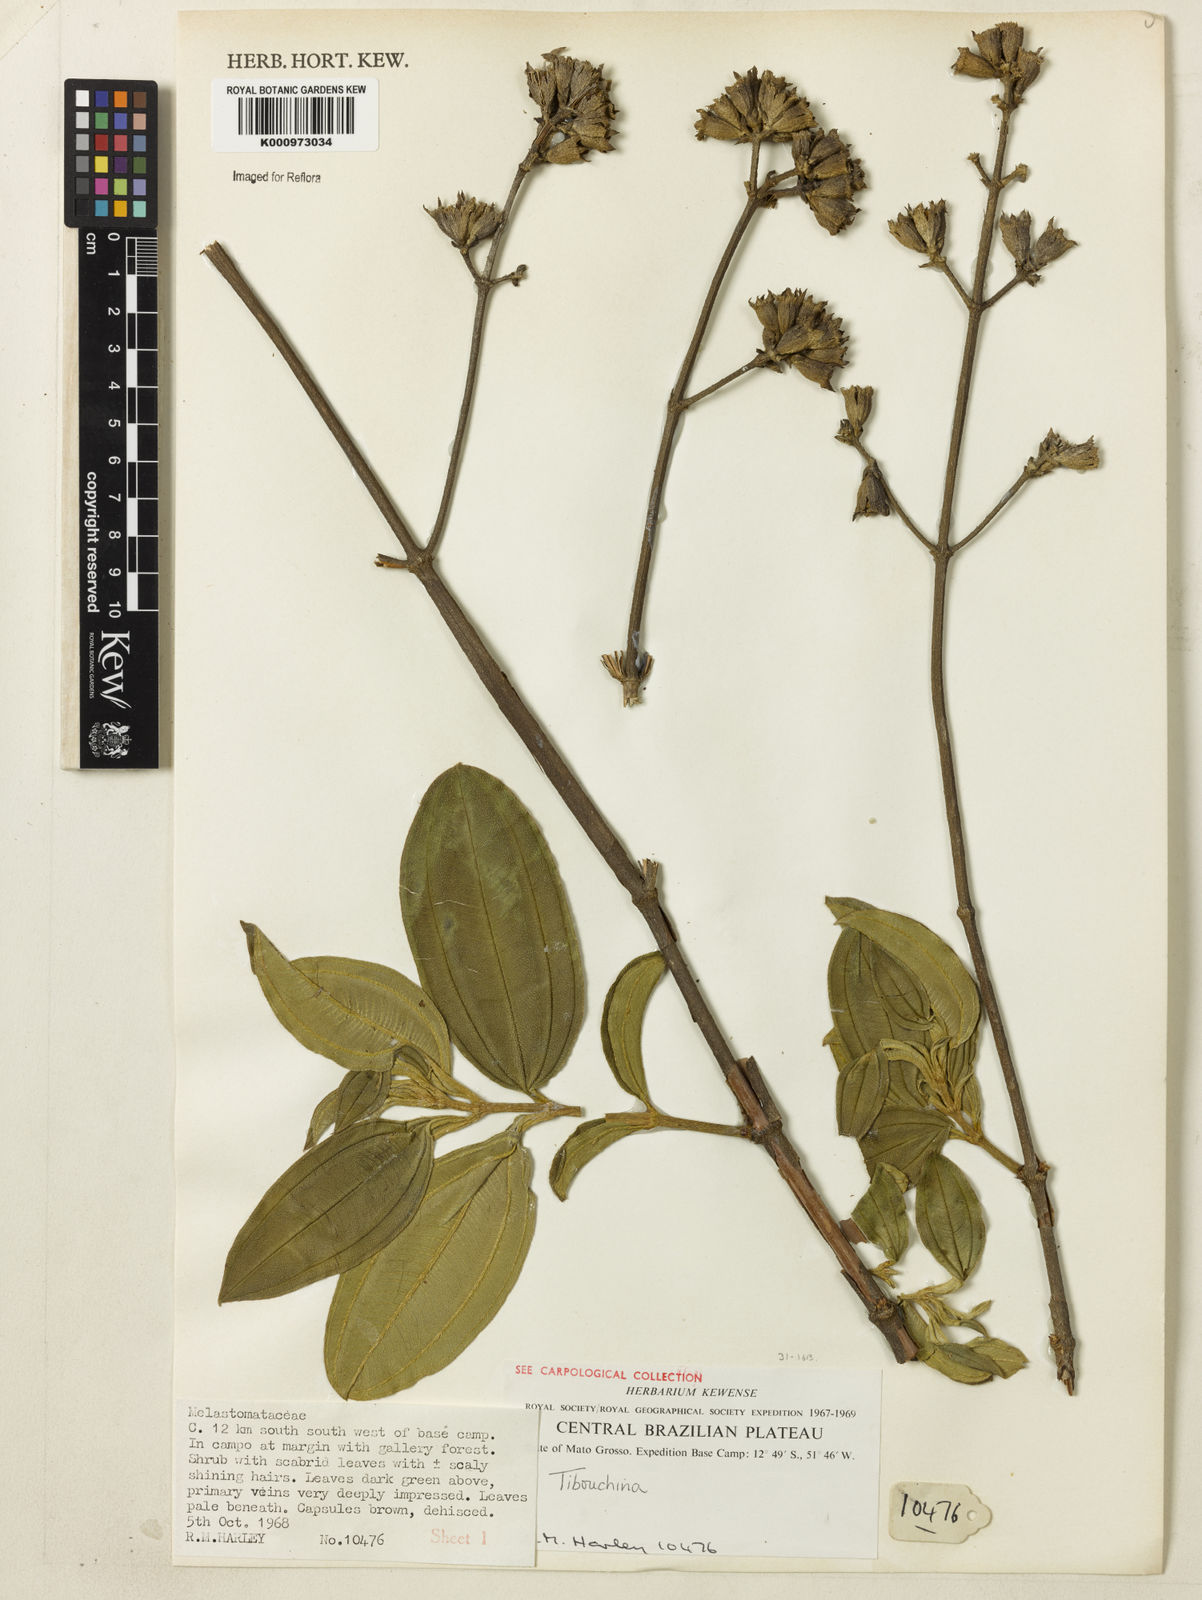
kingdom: Plantae
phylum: Tracheophyta
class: Magnoliopsida
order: Myrtales
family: Melastomataceae
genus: Tibouchina
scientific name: Tibouchina
